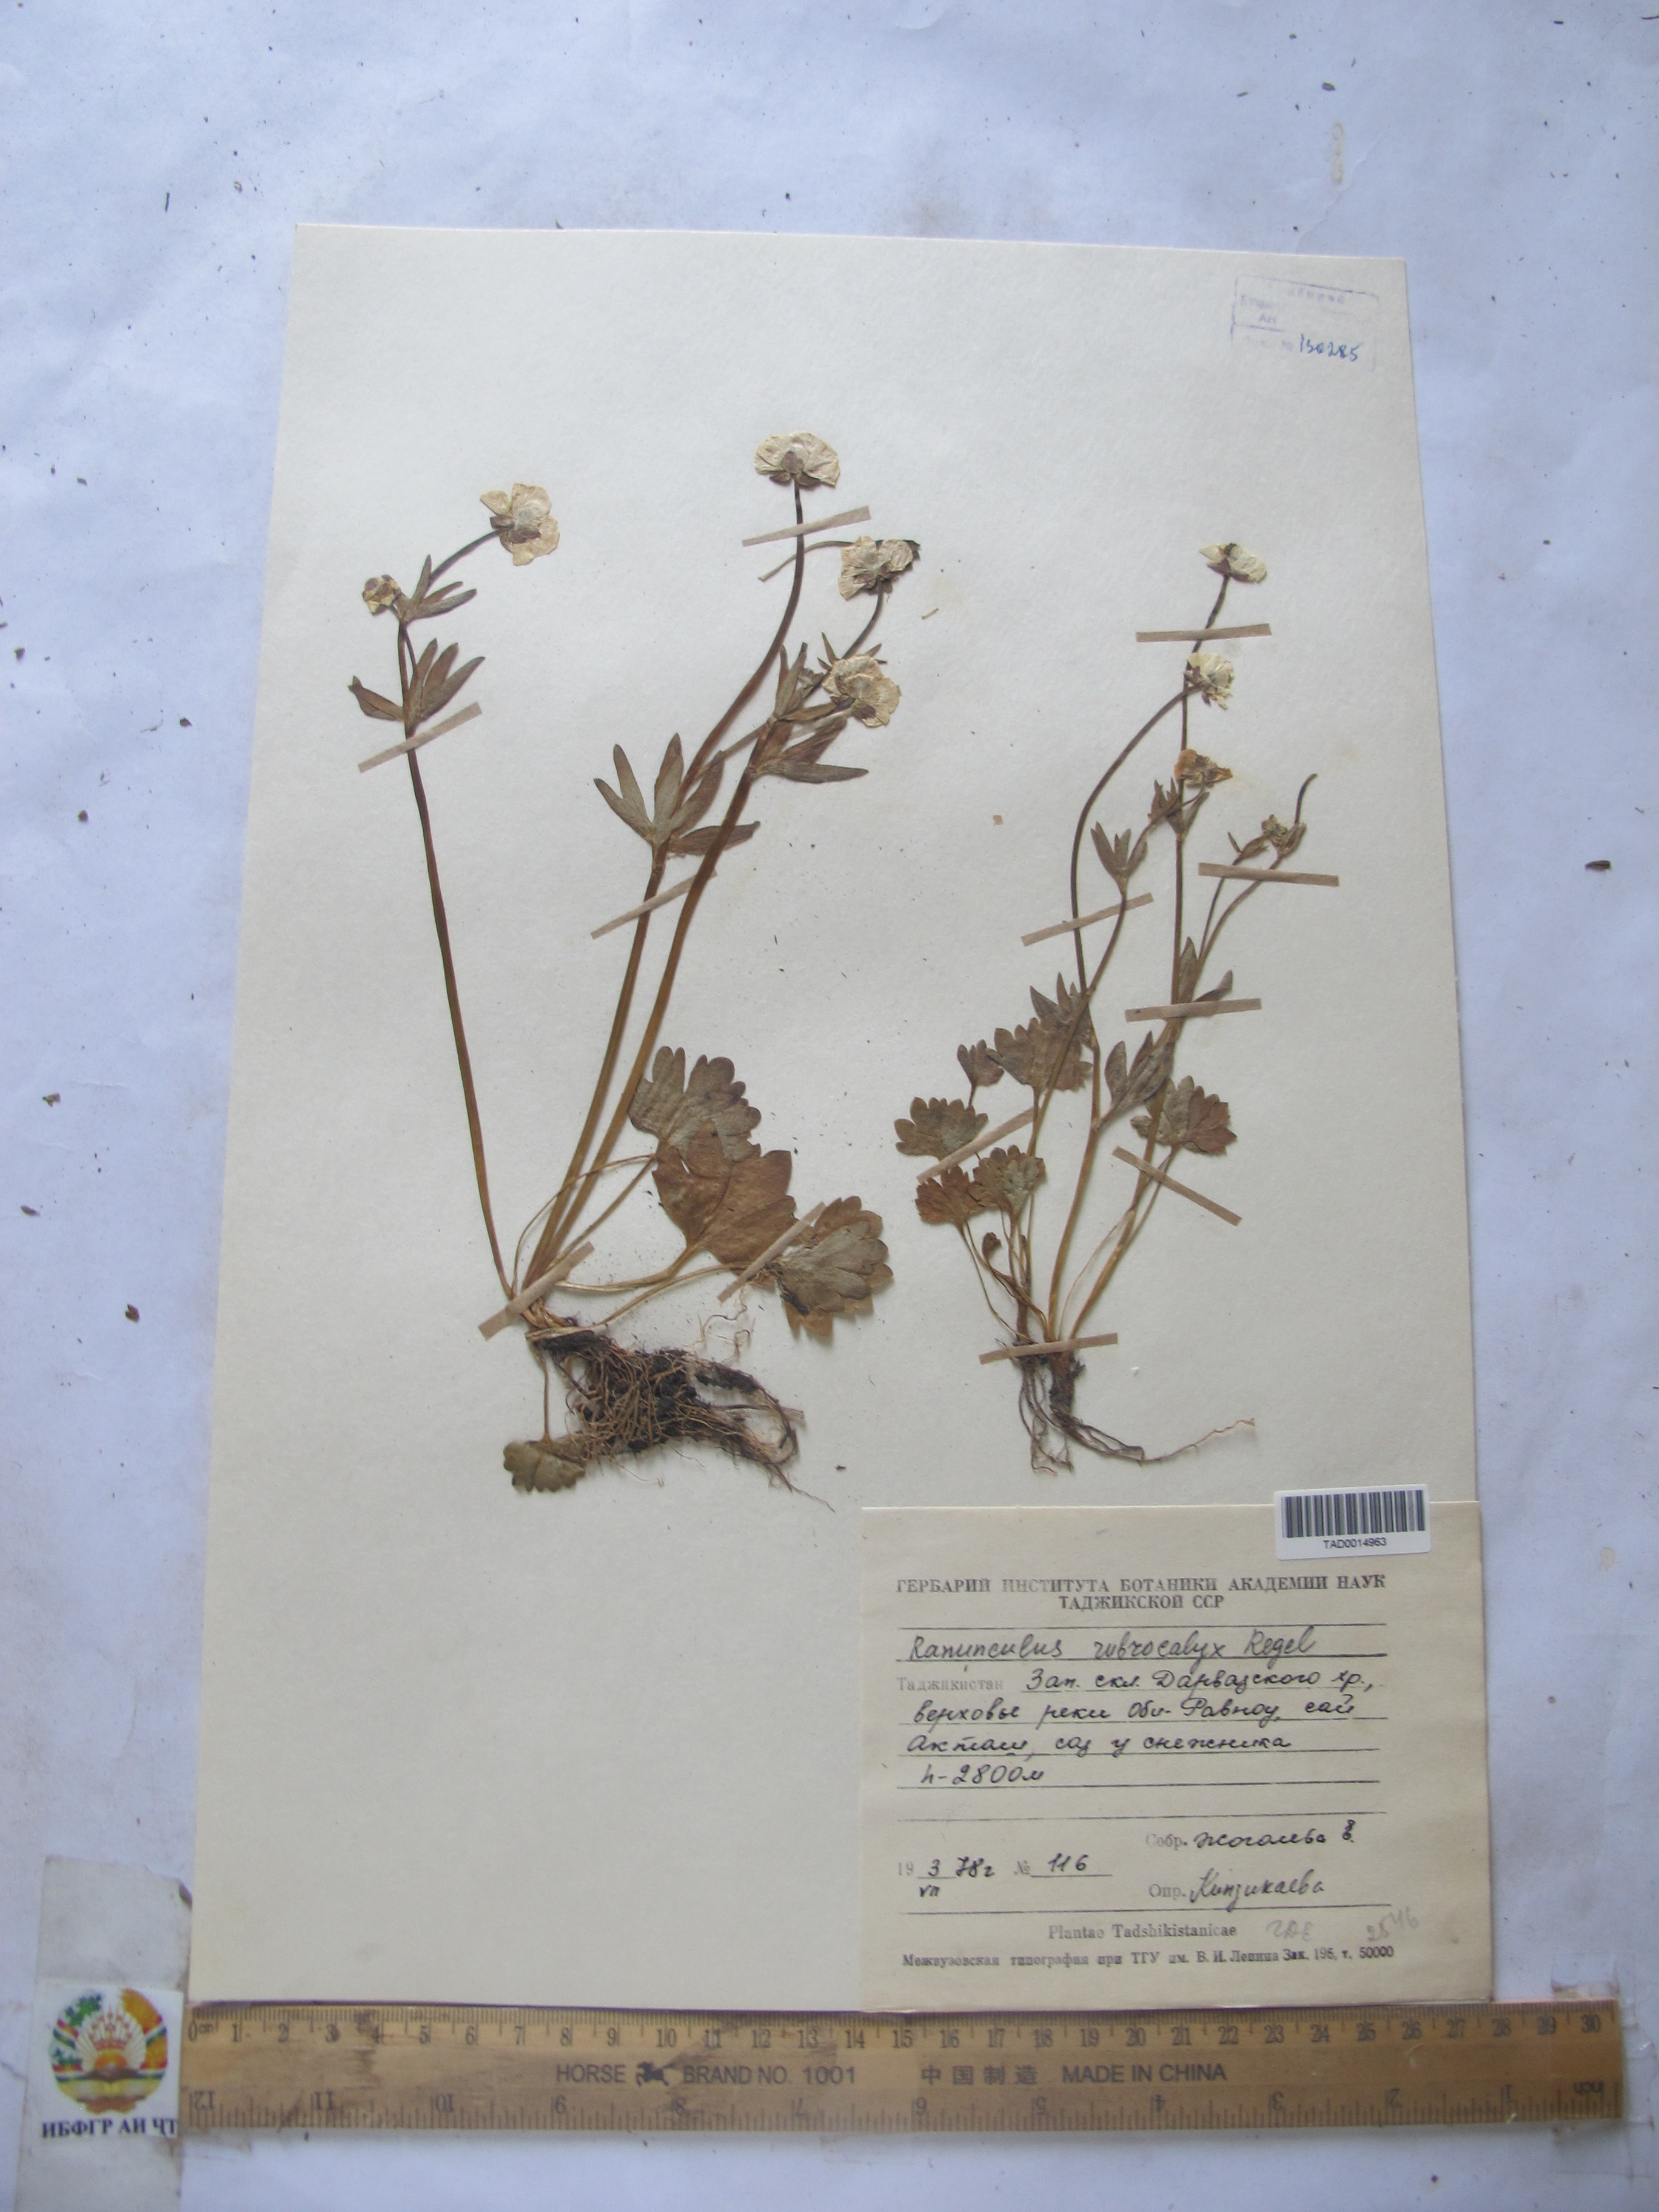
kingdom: Plantae
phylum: Tracheophyta
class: Magnoliopsida
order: Ranunculales
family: Ranunculaceae
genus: Ranunculus
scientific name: Ranunculus rubrocalyx
